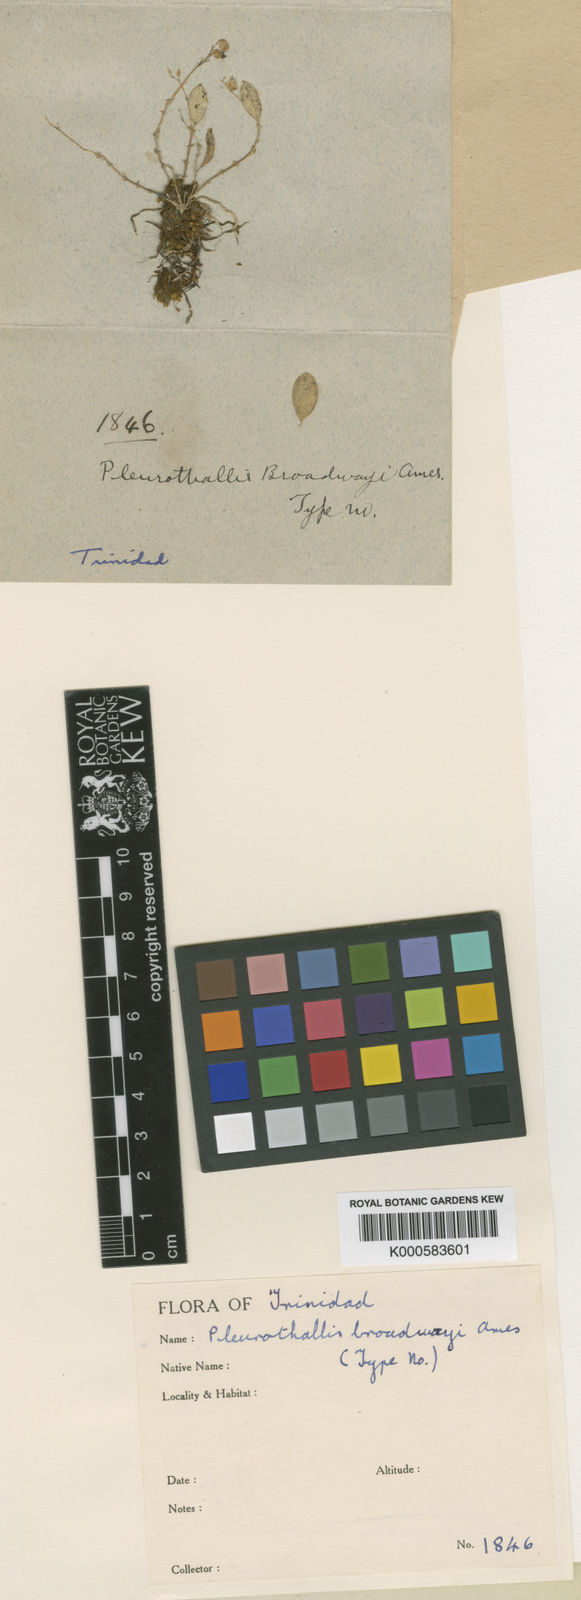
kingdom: Plantae
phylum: Tracheophyta
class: Liliopsida
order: Asparagales
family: Orchidaceae
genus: Trichosalpinx
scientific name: Trichosalpinx dura
